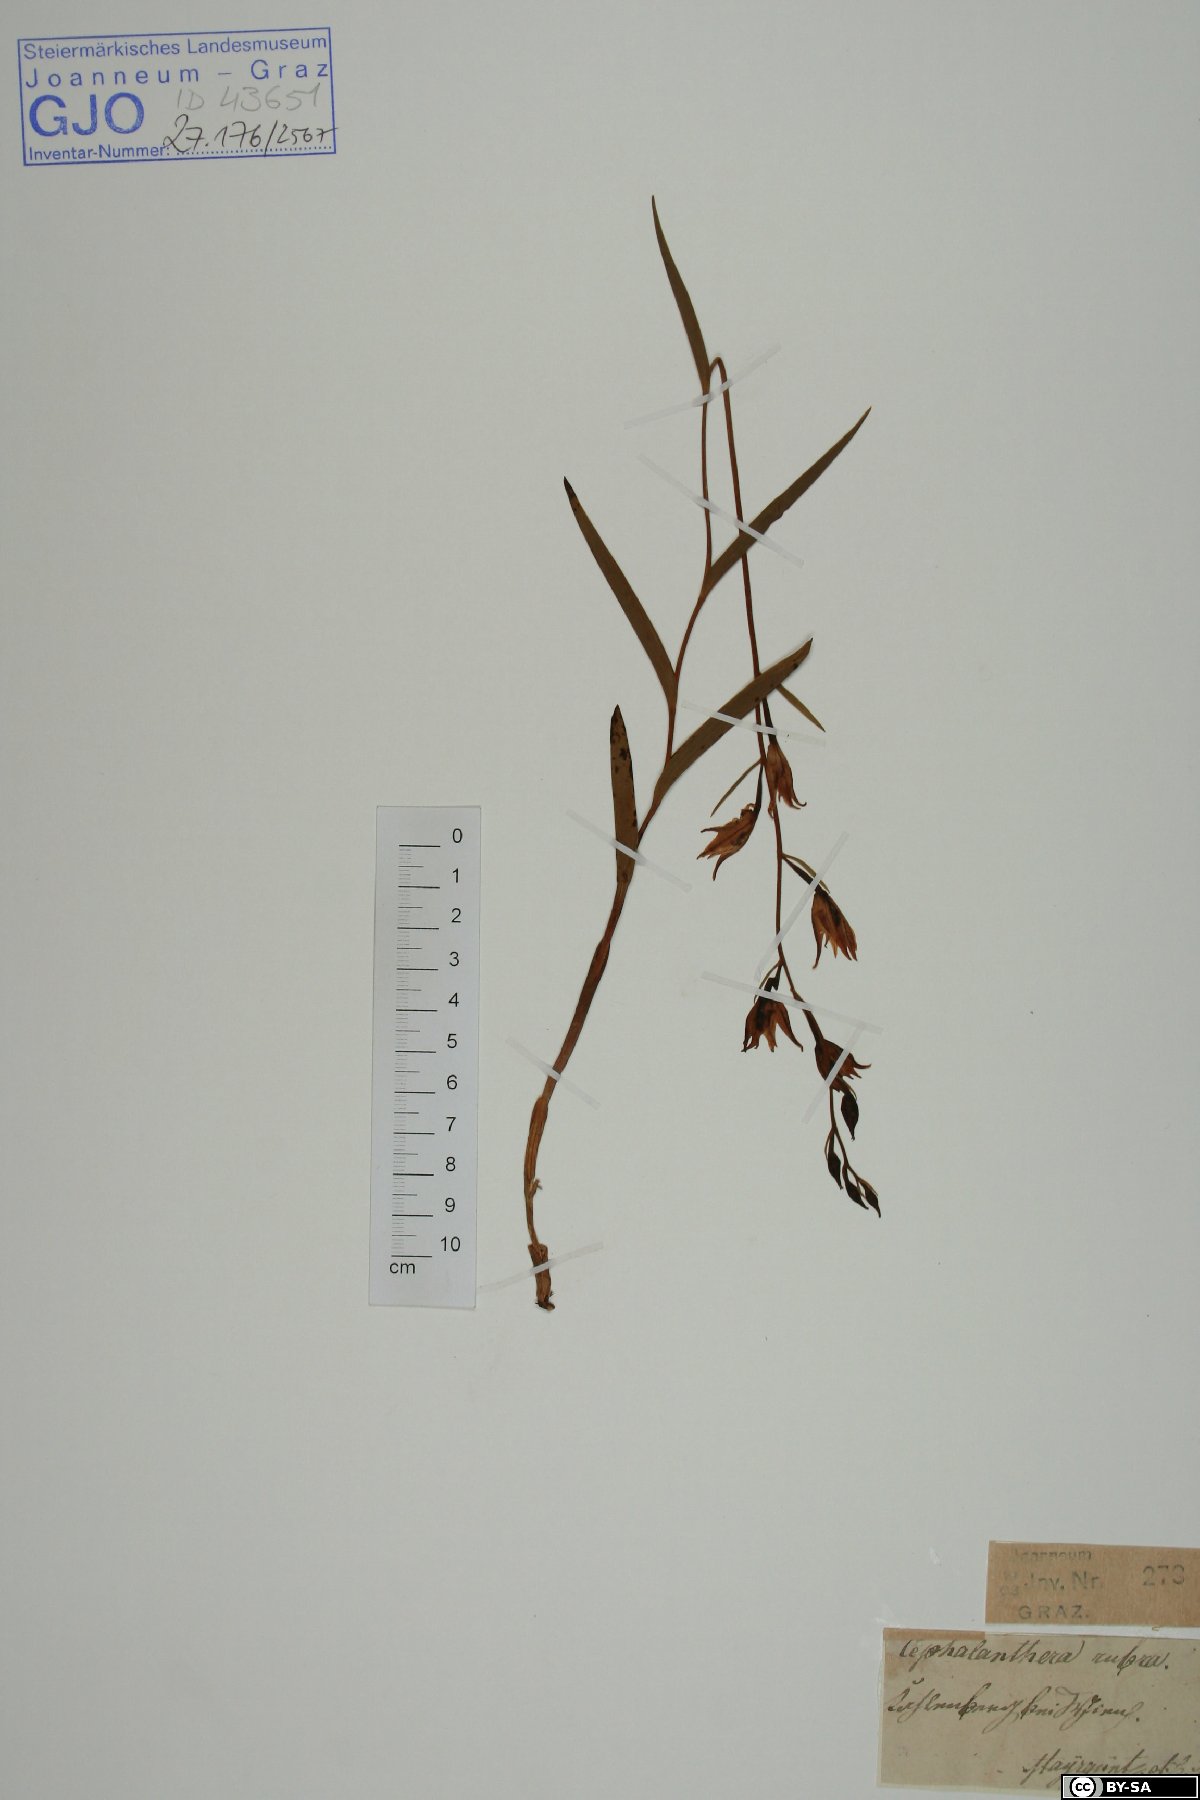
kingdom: Plantae
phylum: Tracheophyta
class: Liliopsida
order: Asparagales
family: Orchidaceae
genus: Cephalanthera
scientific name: Cephalanthera rubra
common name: Red helleborine
